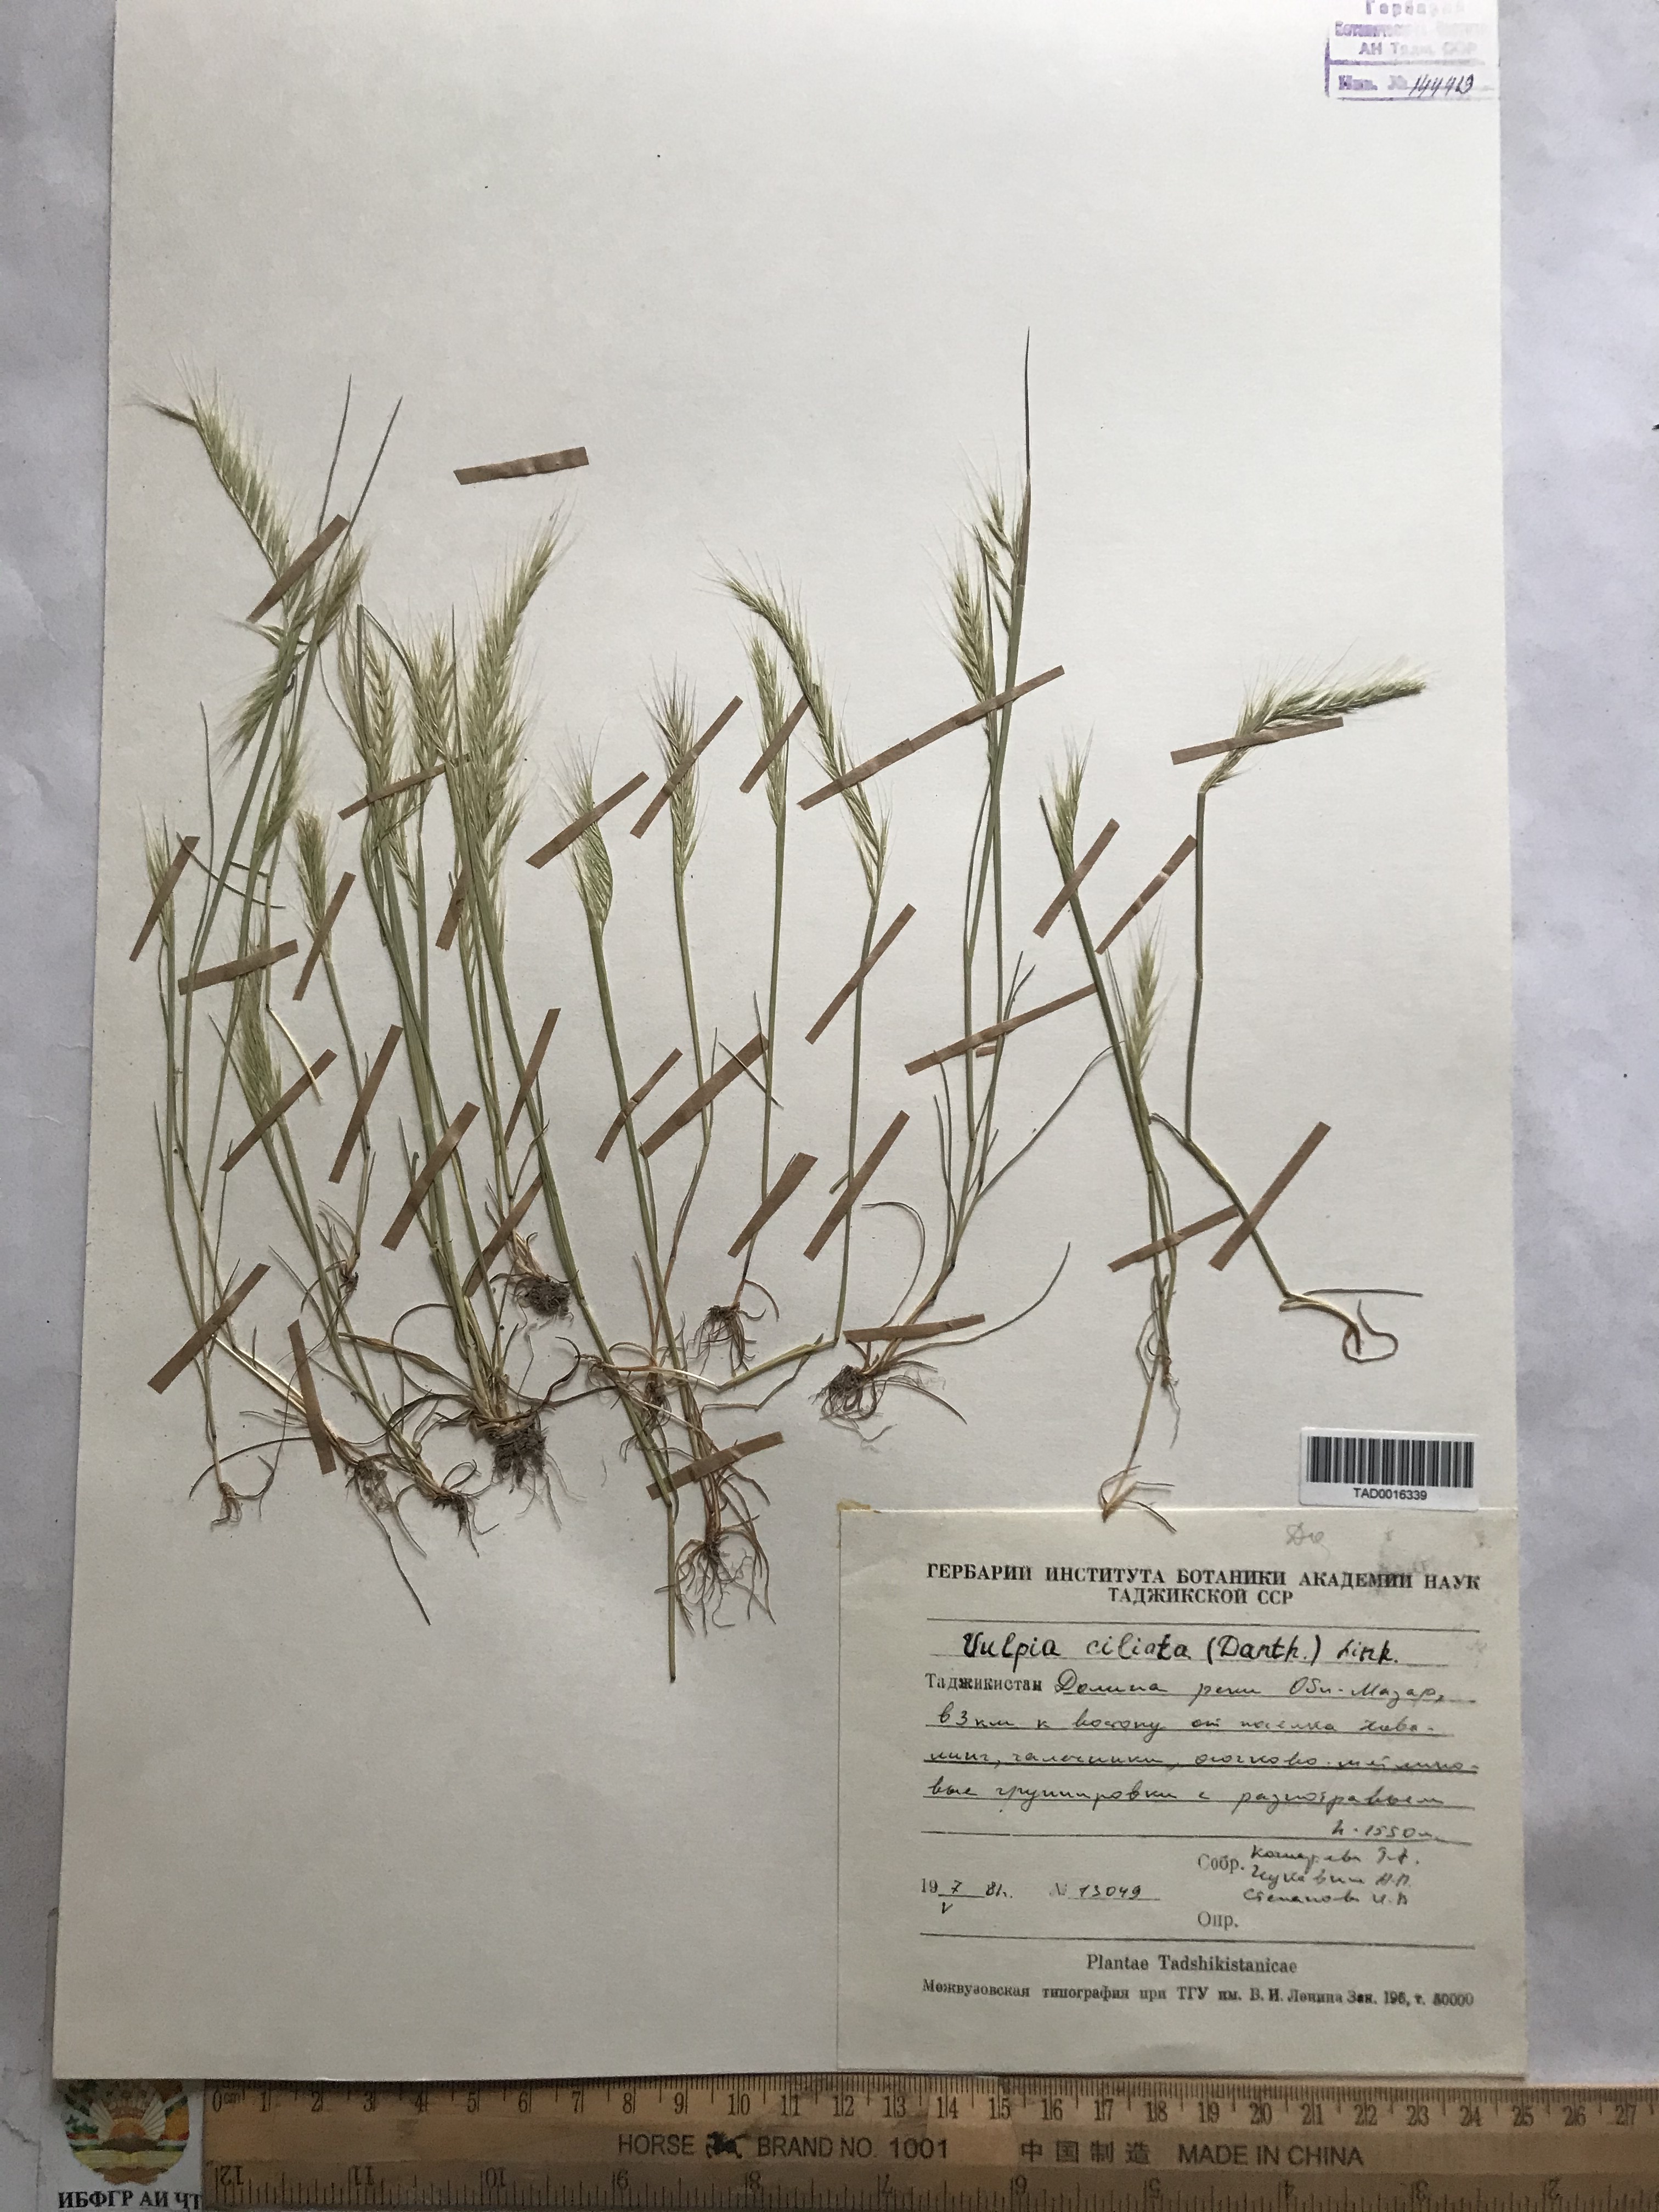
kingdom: Plantae
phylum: Tracheophyta
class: Liliopsida
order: Poales
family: Poaceae
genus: Festuca
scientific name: Festuca ambigua
